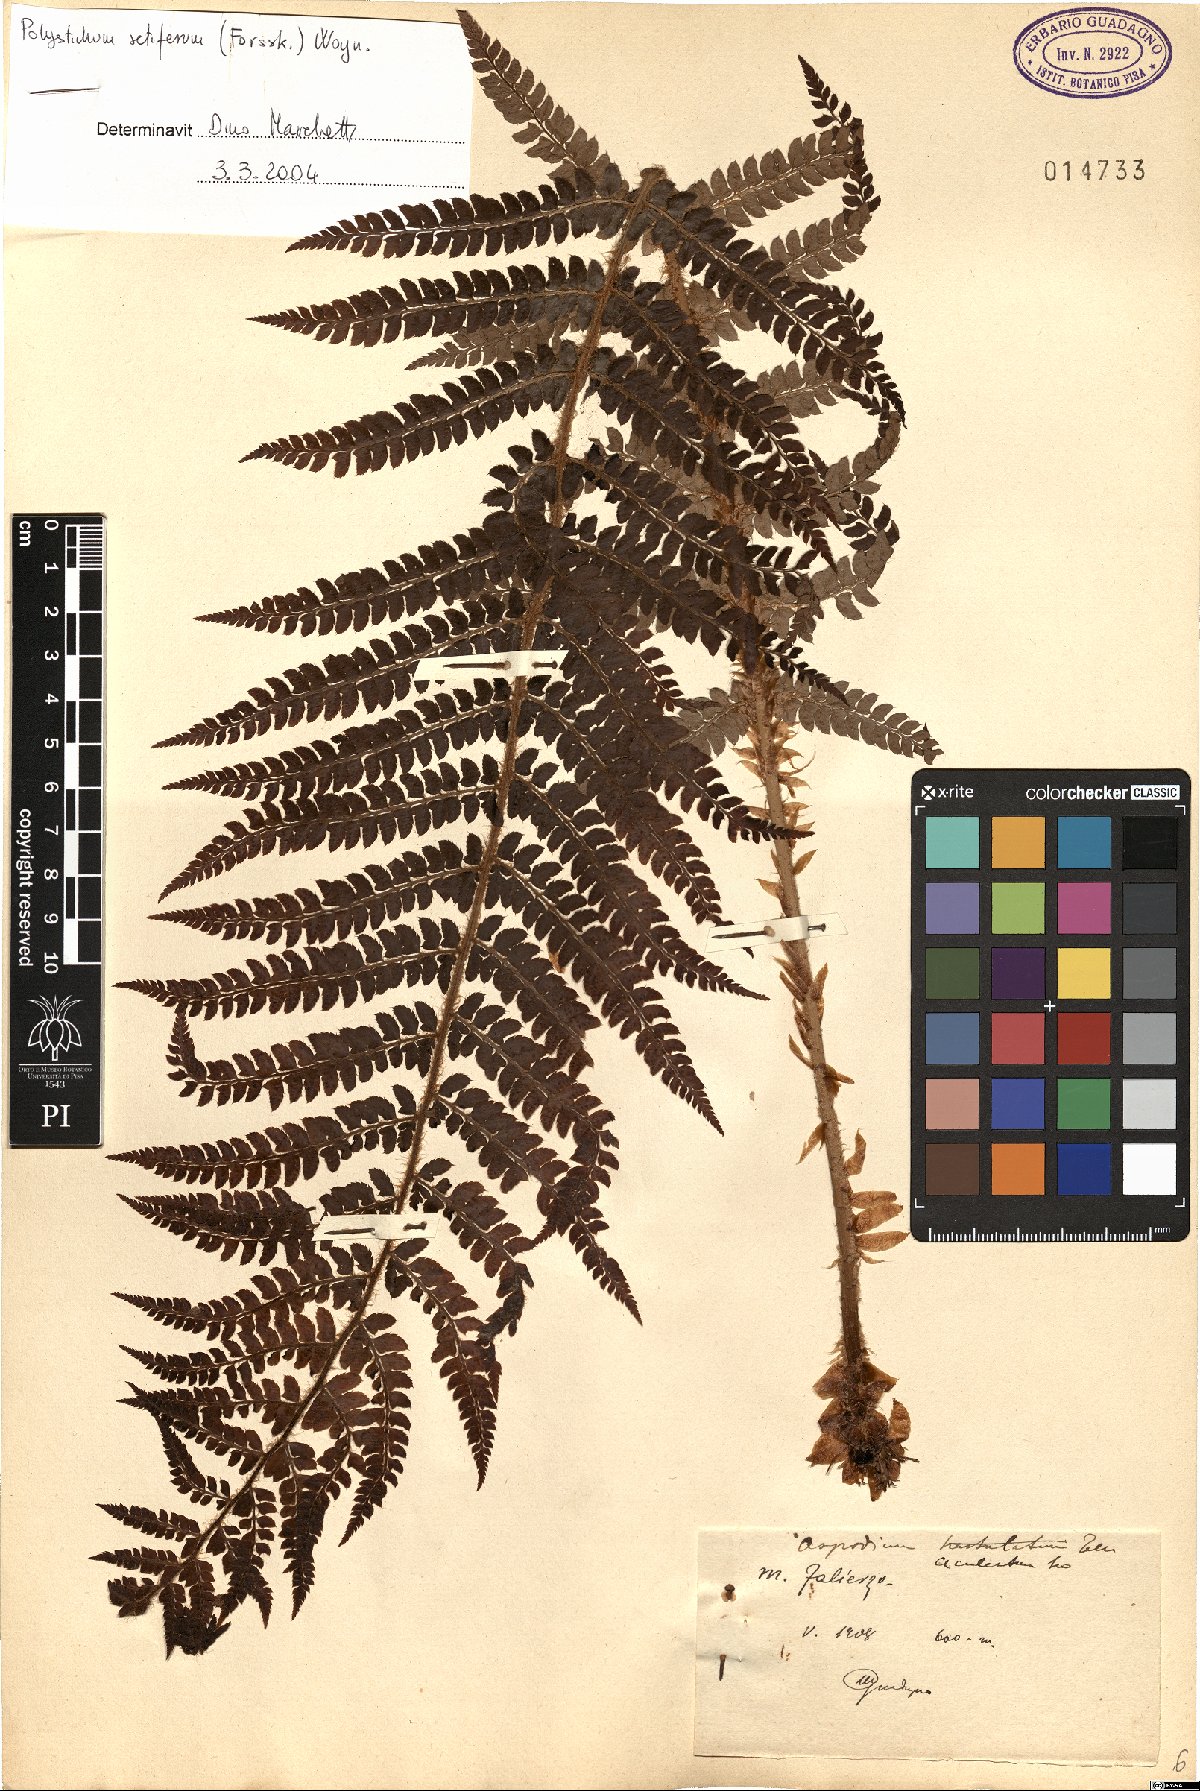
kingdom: Plantae
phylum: Tracheophyta
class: Polypodiopsida
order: Polypodiales
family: Dryopteridaceae
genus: Polystichum
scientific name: Polystichum setiferum
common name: Soft shield-fern
